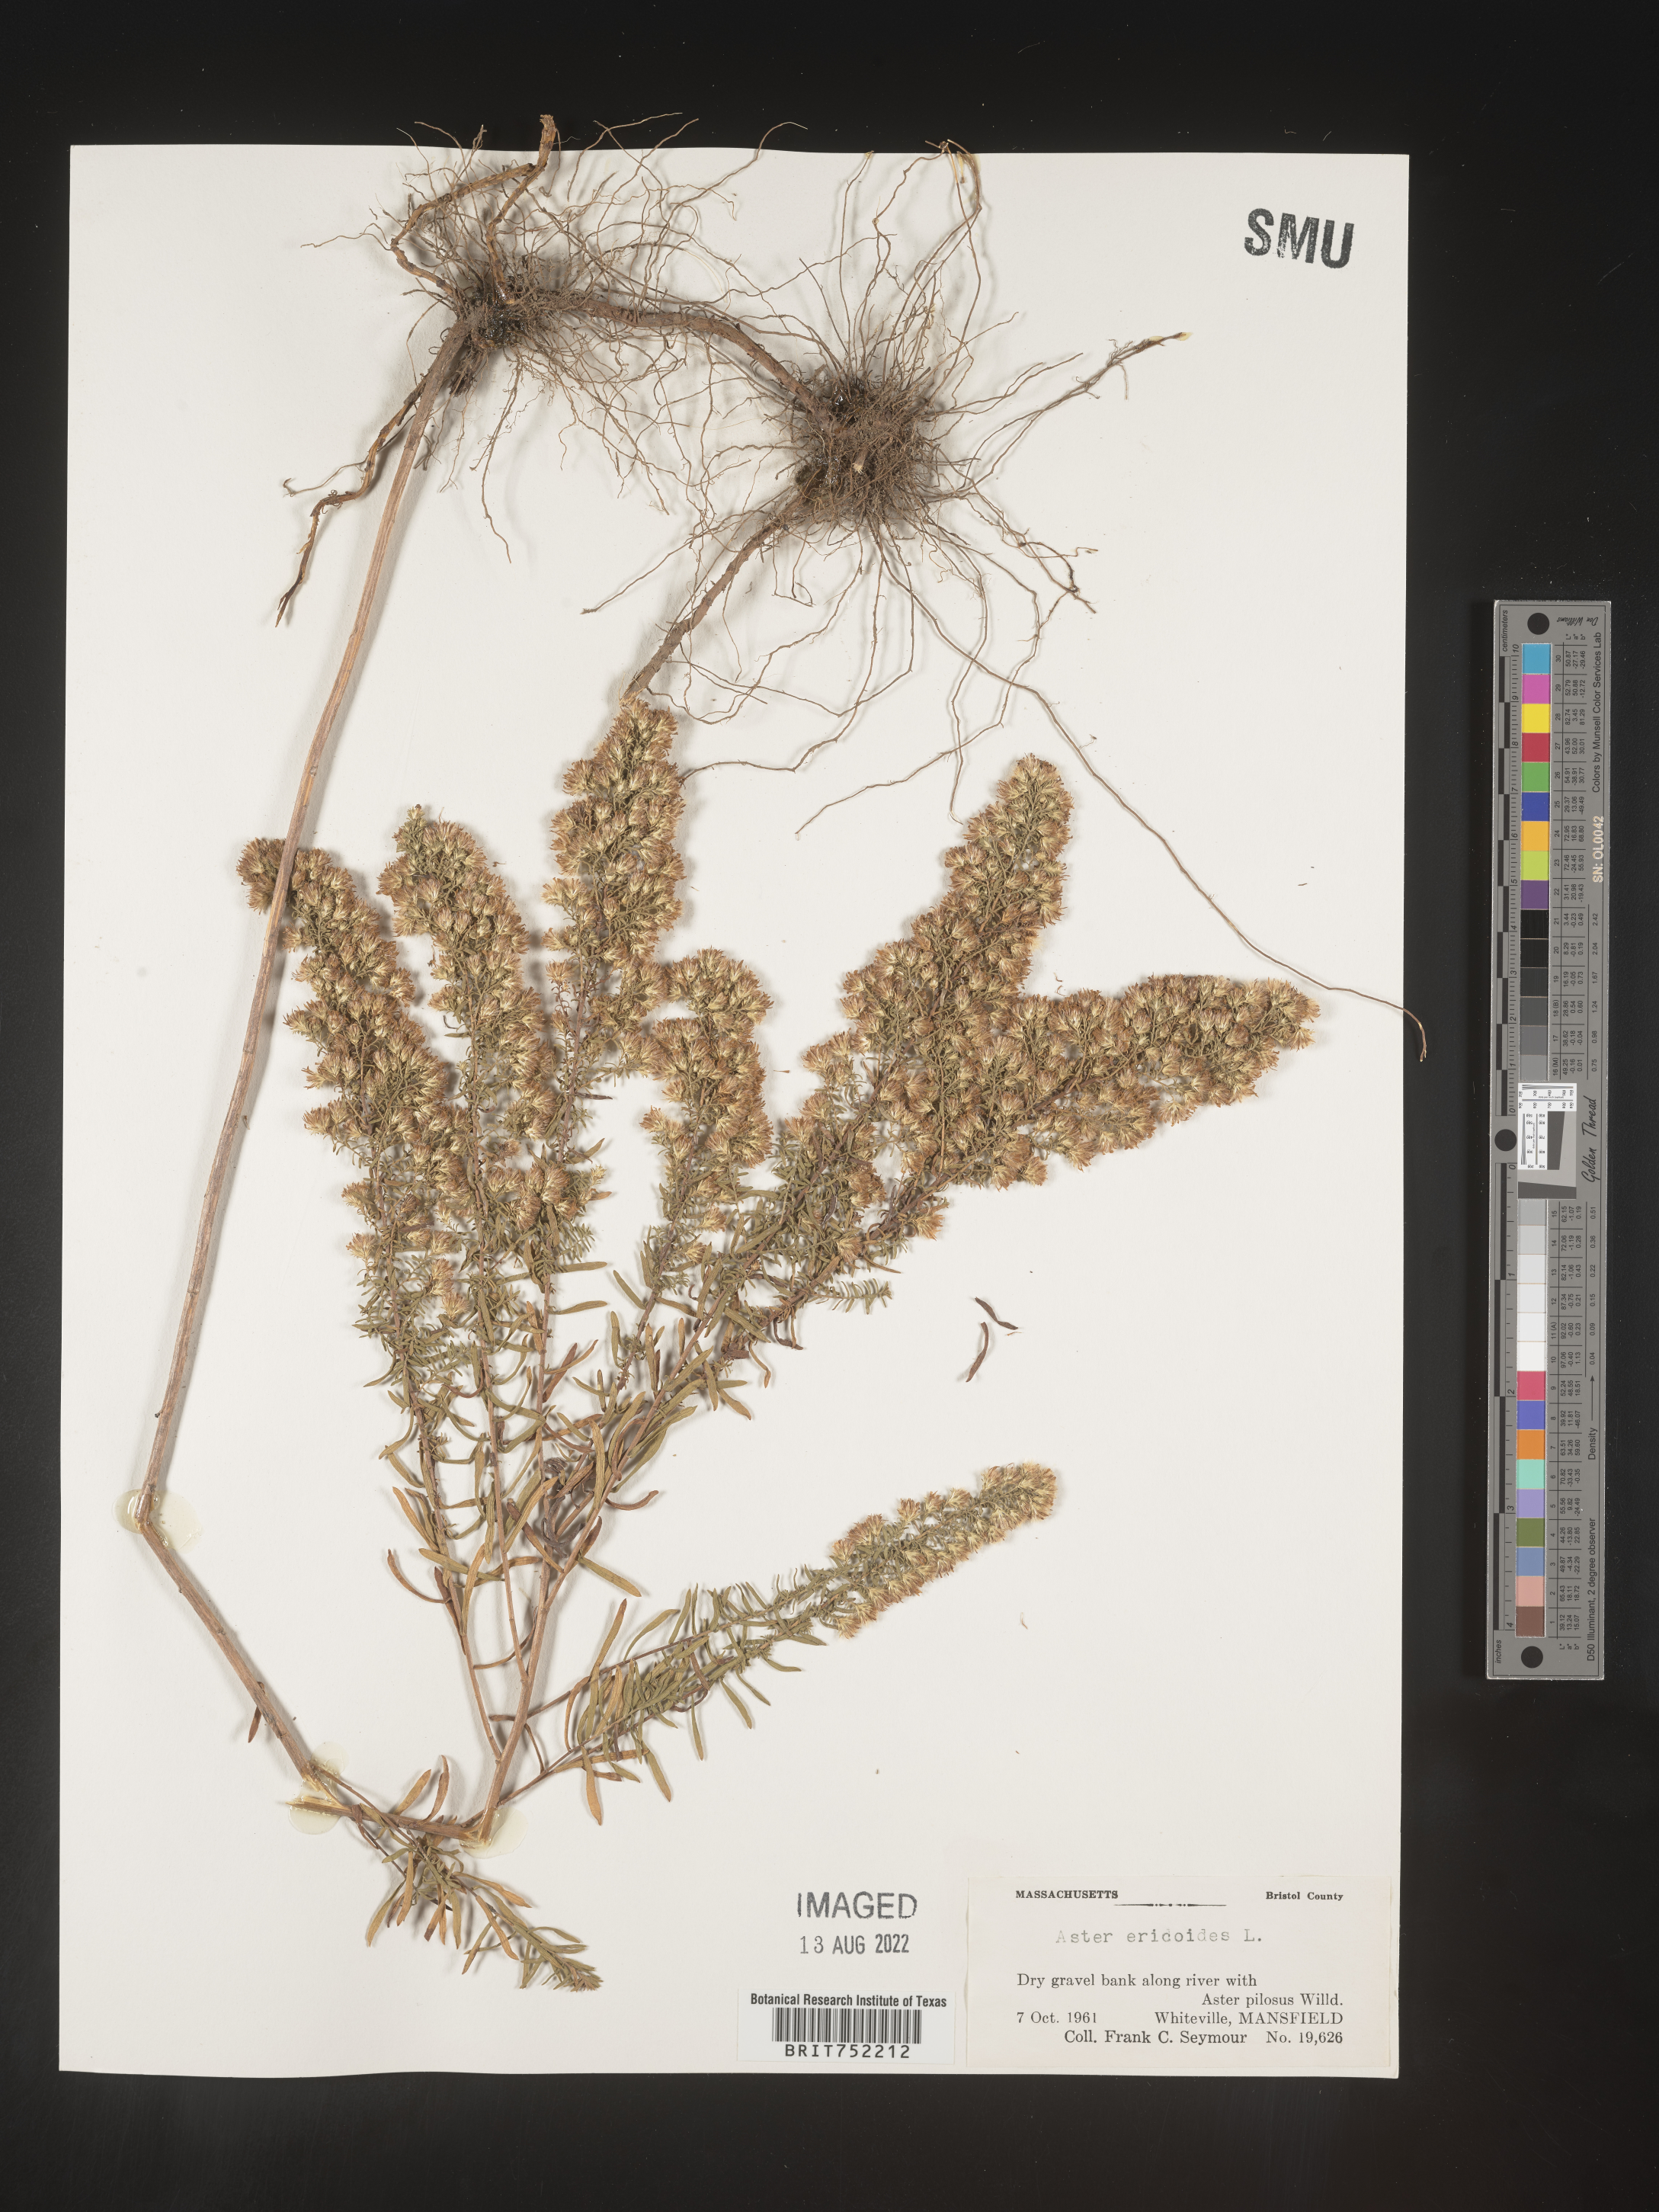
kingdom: Plantae
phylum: Tracheophyta
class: Magnoliopsida
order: Asterales
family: Asteraceae
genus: Symphyotrichum
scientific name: Symphyotrichum ericoides
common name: Heath aster
